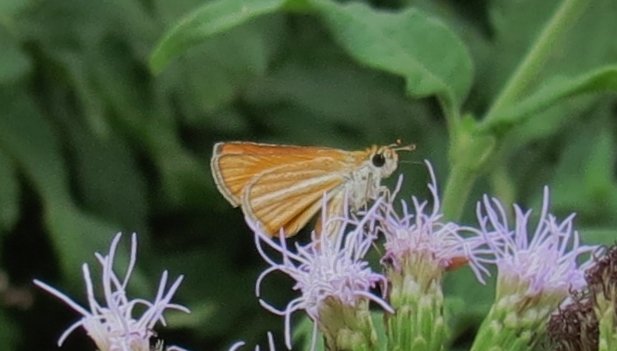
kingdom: Animalia
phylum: Arthropoda
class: Insecta
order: Lepidoptera
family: Hesperiidae
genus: Copaeodes
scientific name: Copaeodes minima
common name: Southern Skipperling
